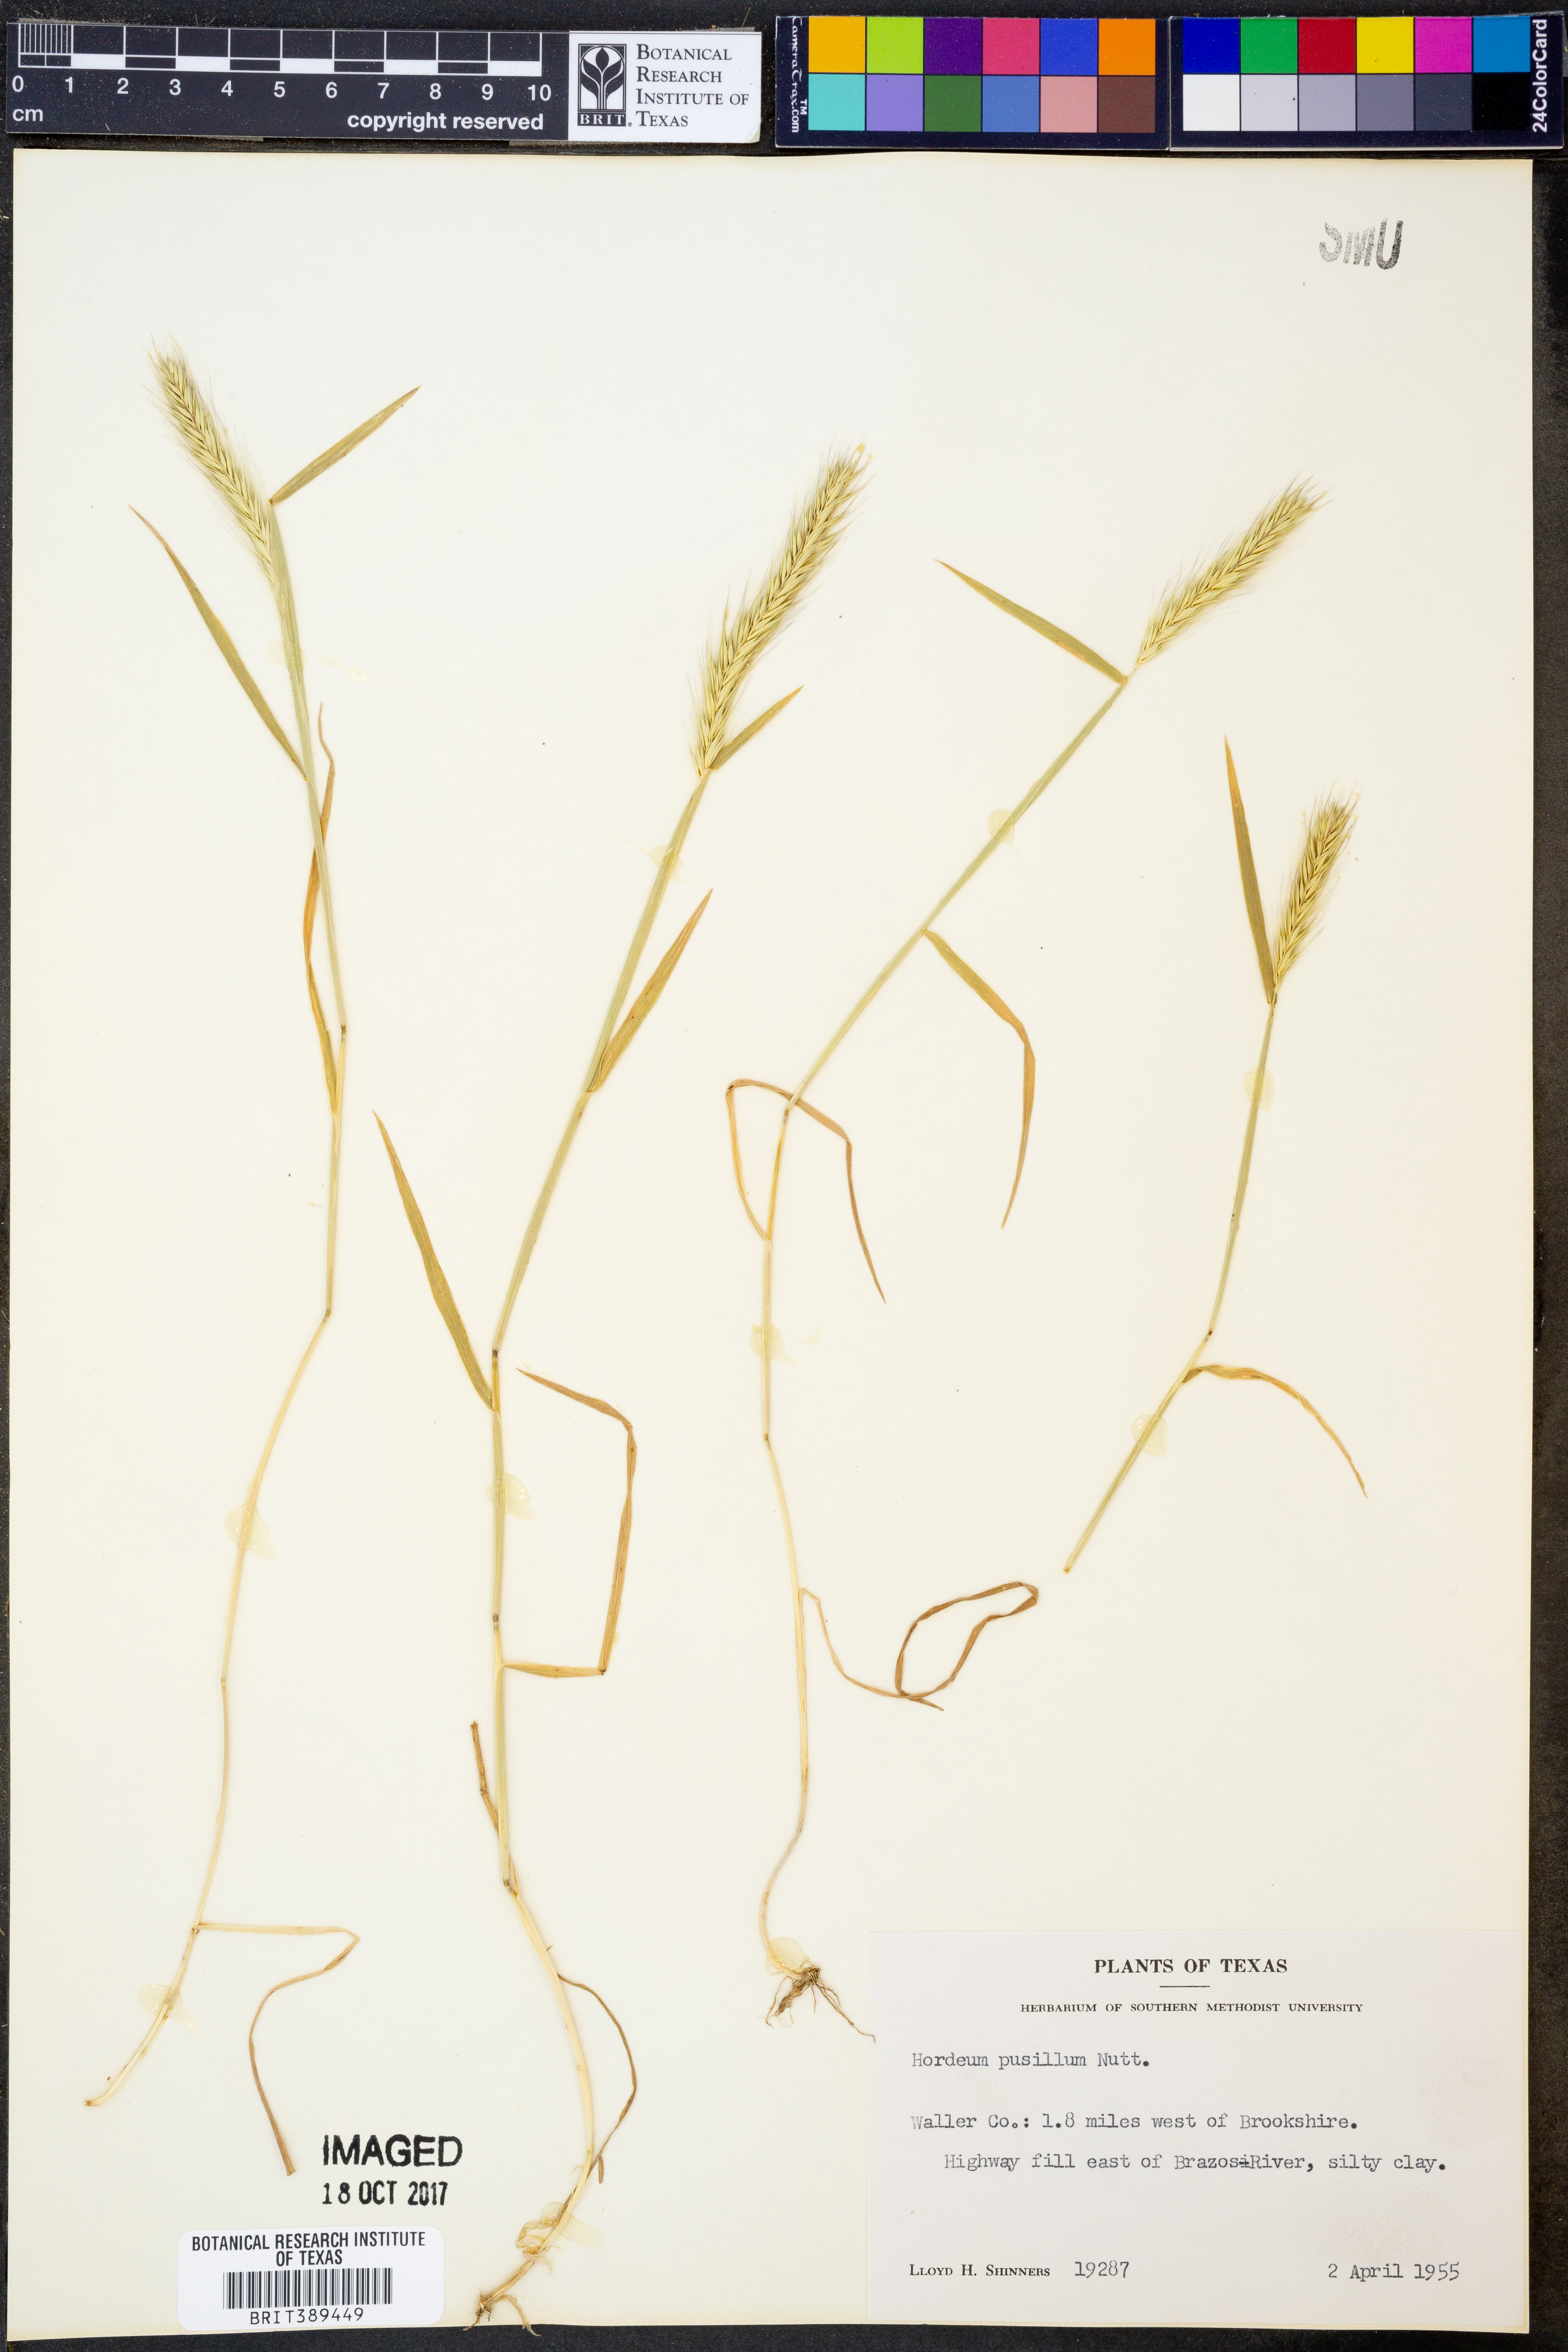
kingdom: Plantae
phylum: Tracheophyta
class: Liliopsida
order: Poales
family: Poaceae
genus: Hordeum
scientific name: Hordeum pusillum
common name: Little barley
